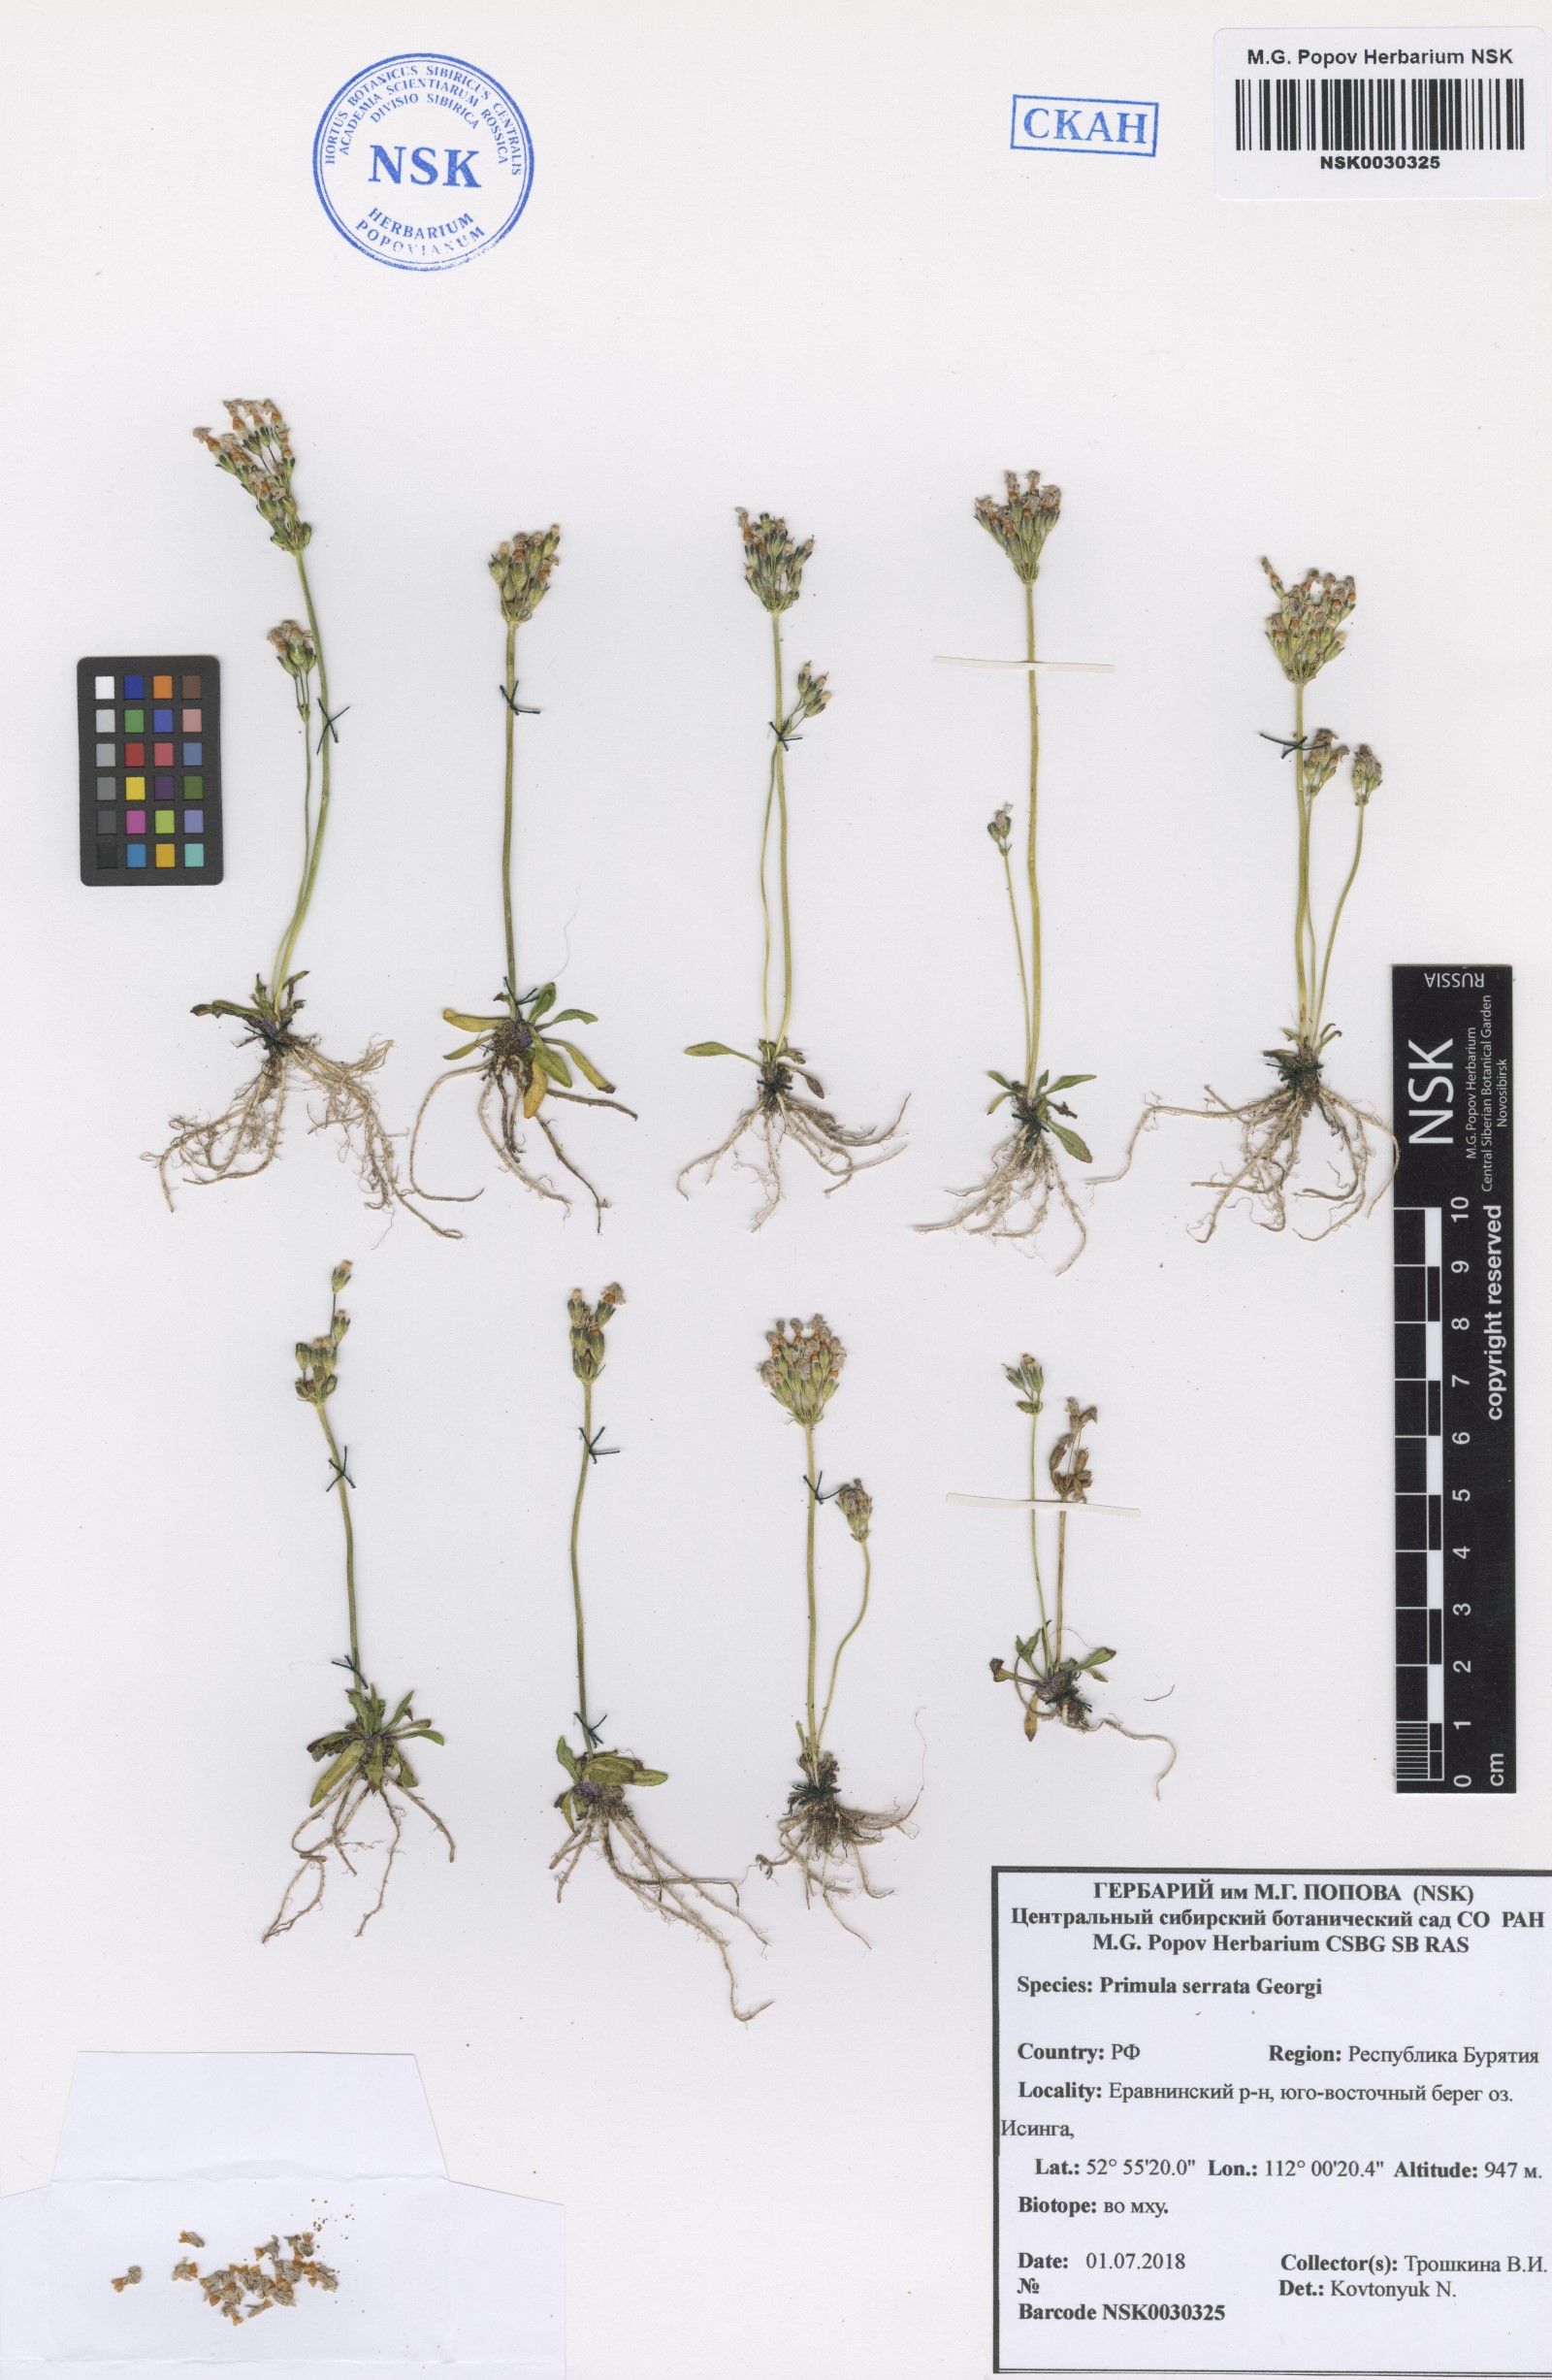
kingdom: Plantae
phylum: Tracheophyta
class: Magnoliopsida
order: Ericales
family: Primulaceae
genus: Primula
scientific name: Primula serrata
